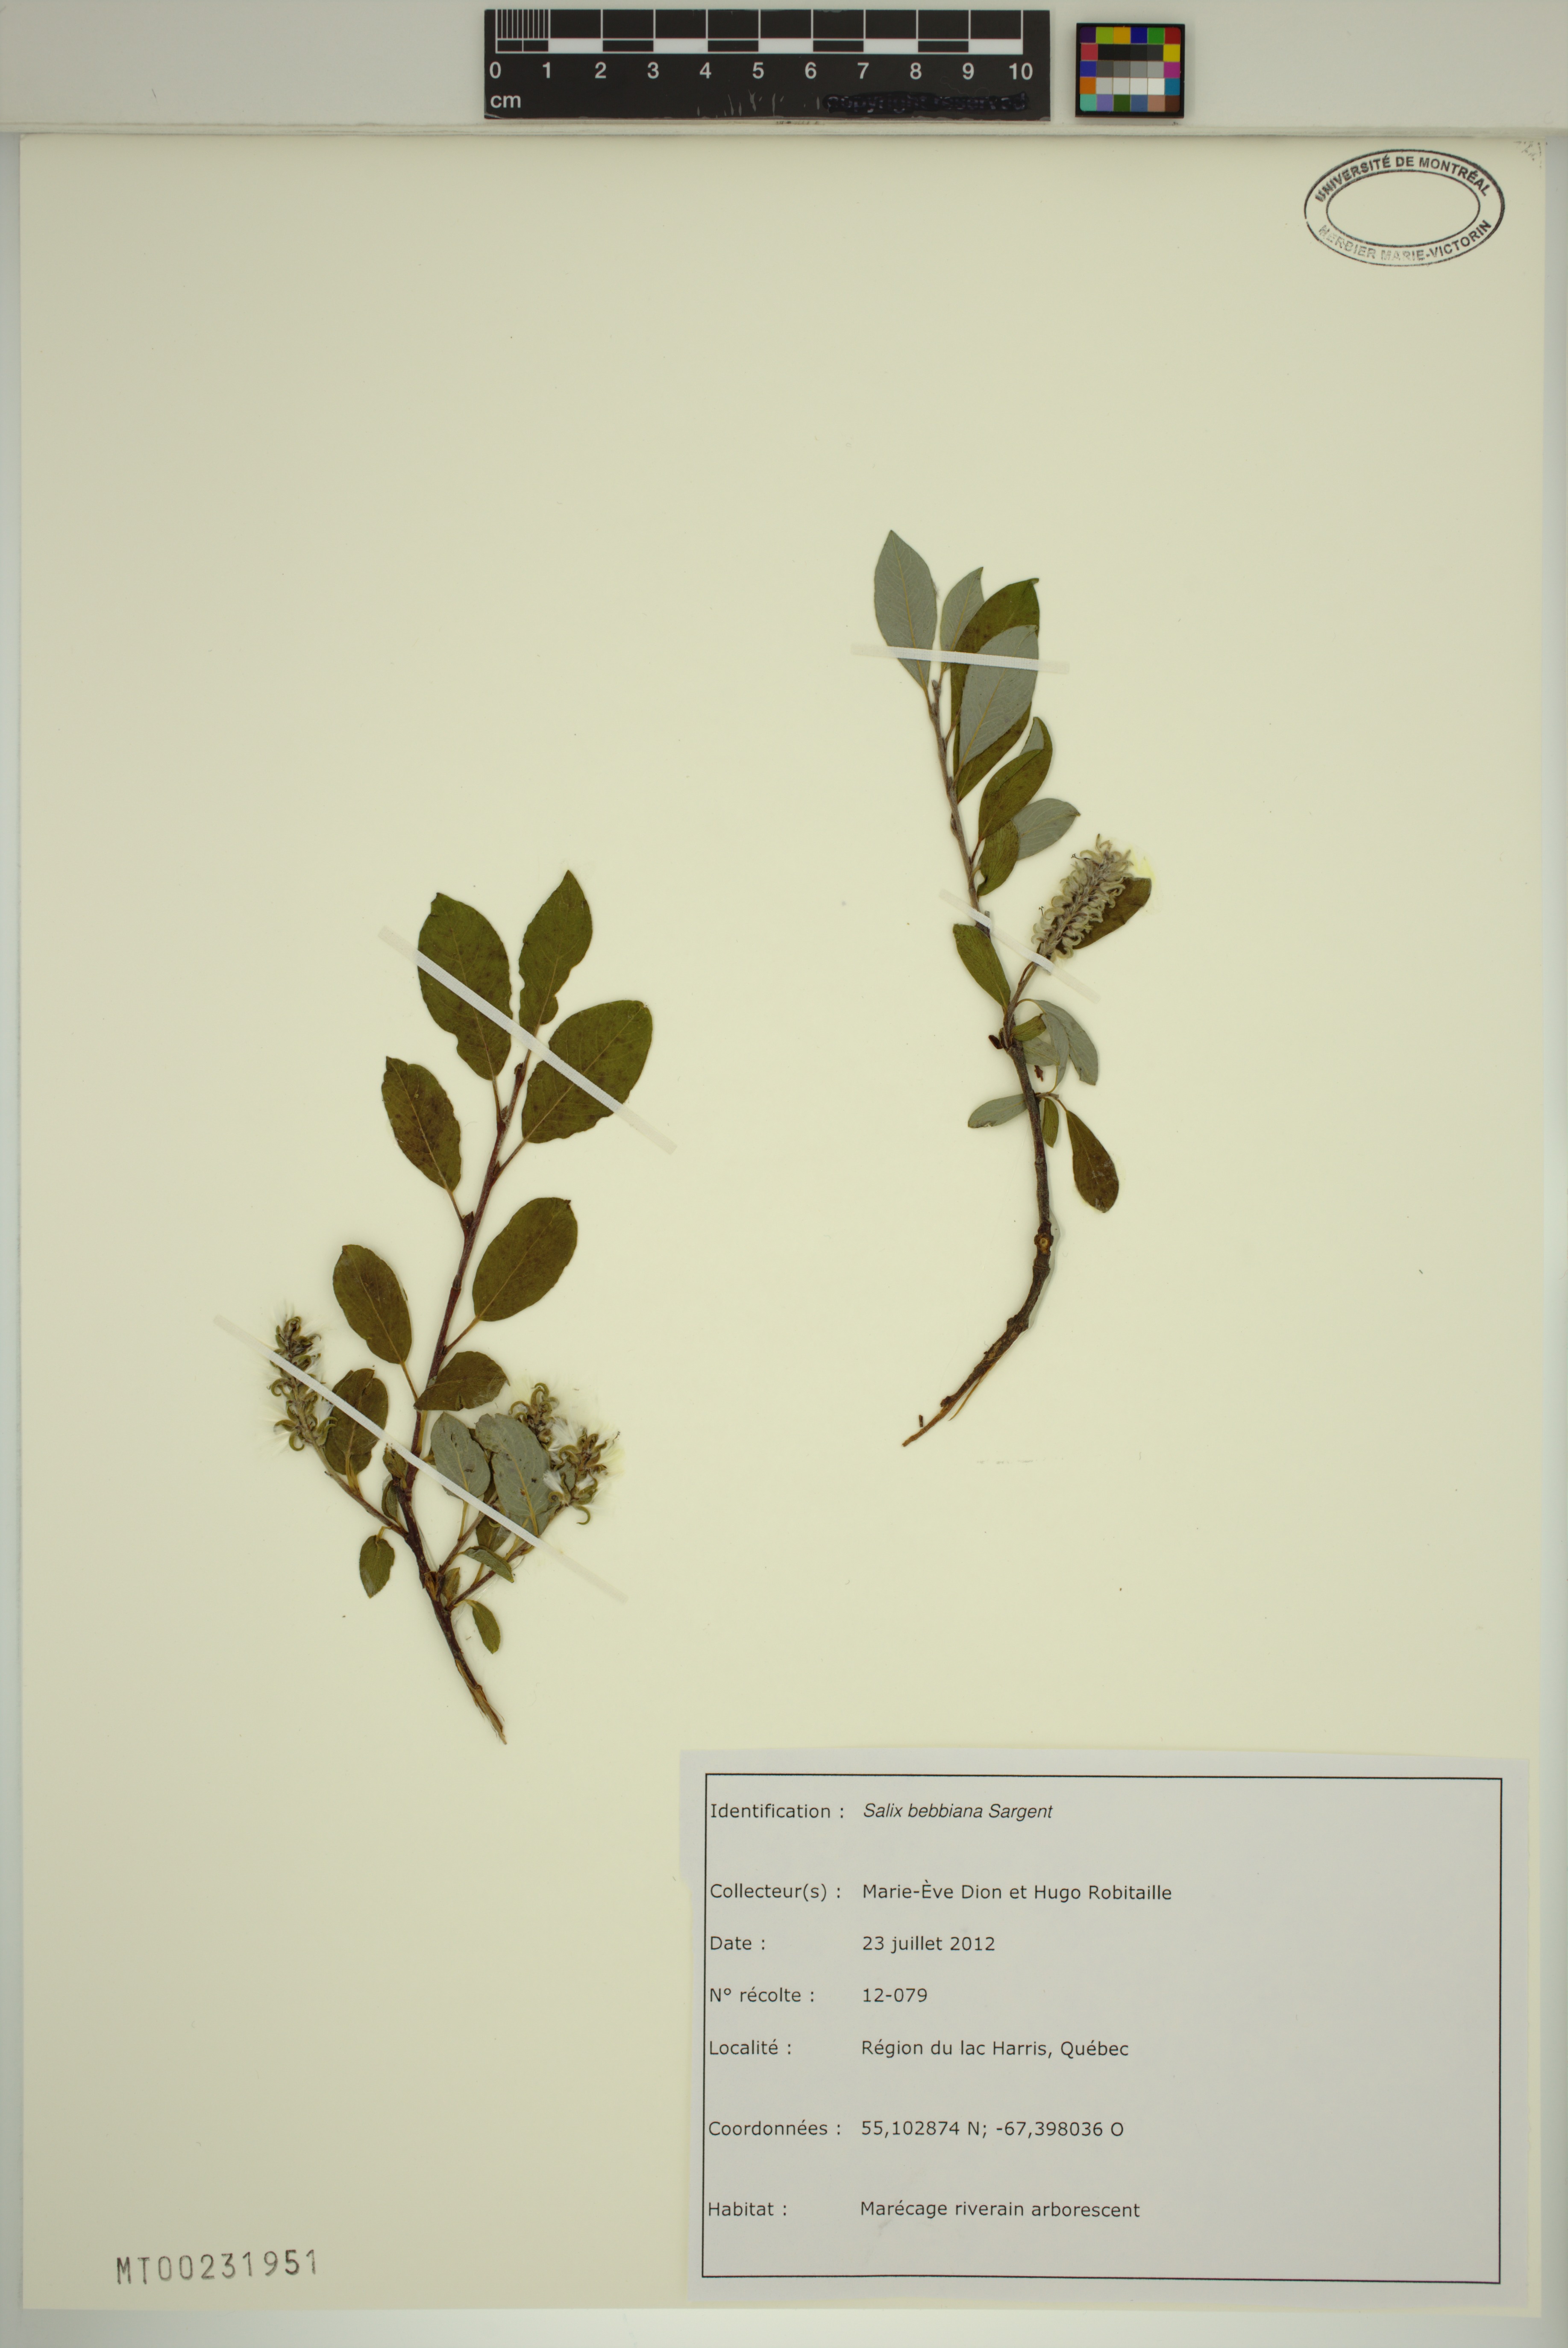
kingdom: Plantae
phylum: Tracheophyta
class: Magnoliopsida
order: Malpighiales
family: Salicaceae
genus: Salix
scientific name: Salix bebbiana
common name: Bebb's willow
